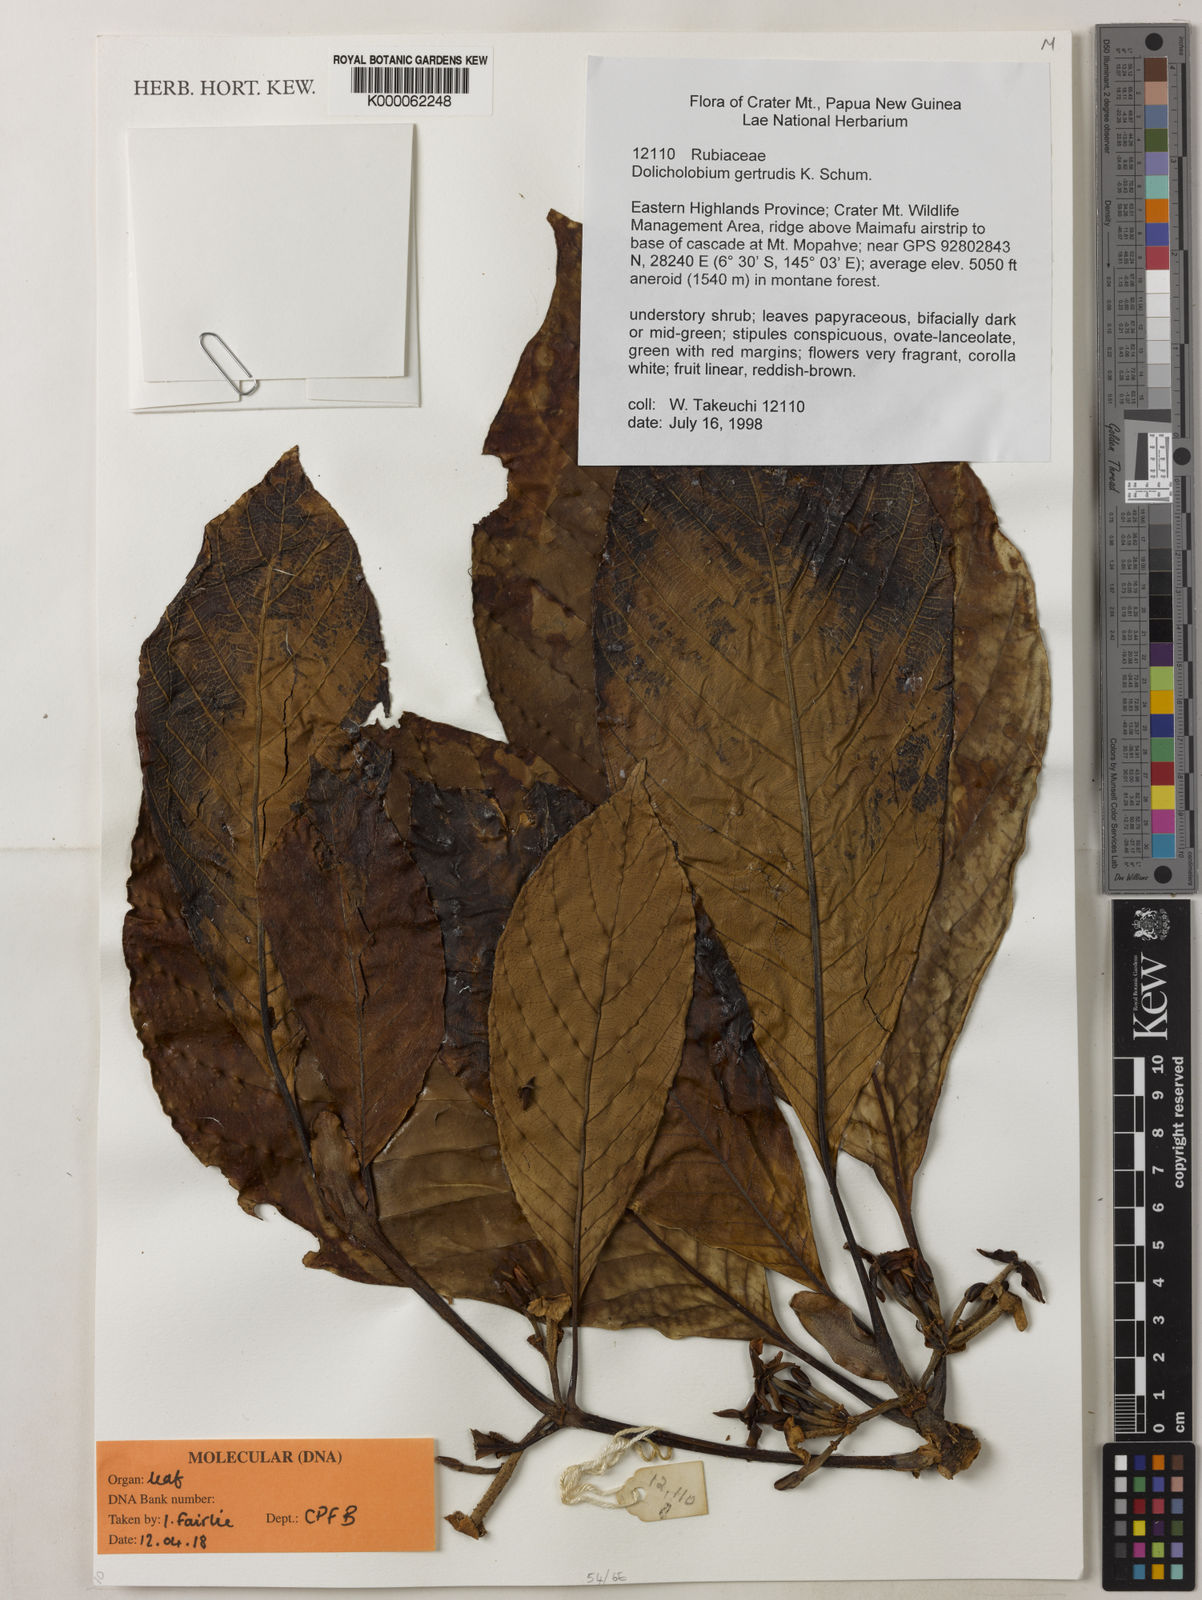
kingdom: Plantae
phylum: Tracheophyta
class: Magnoliopsida
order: Gentianales
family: Rubiaceae
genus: Dolicholobium
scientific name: Dolicholobium gertrudis
